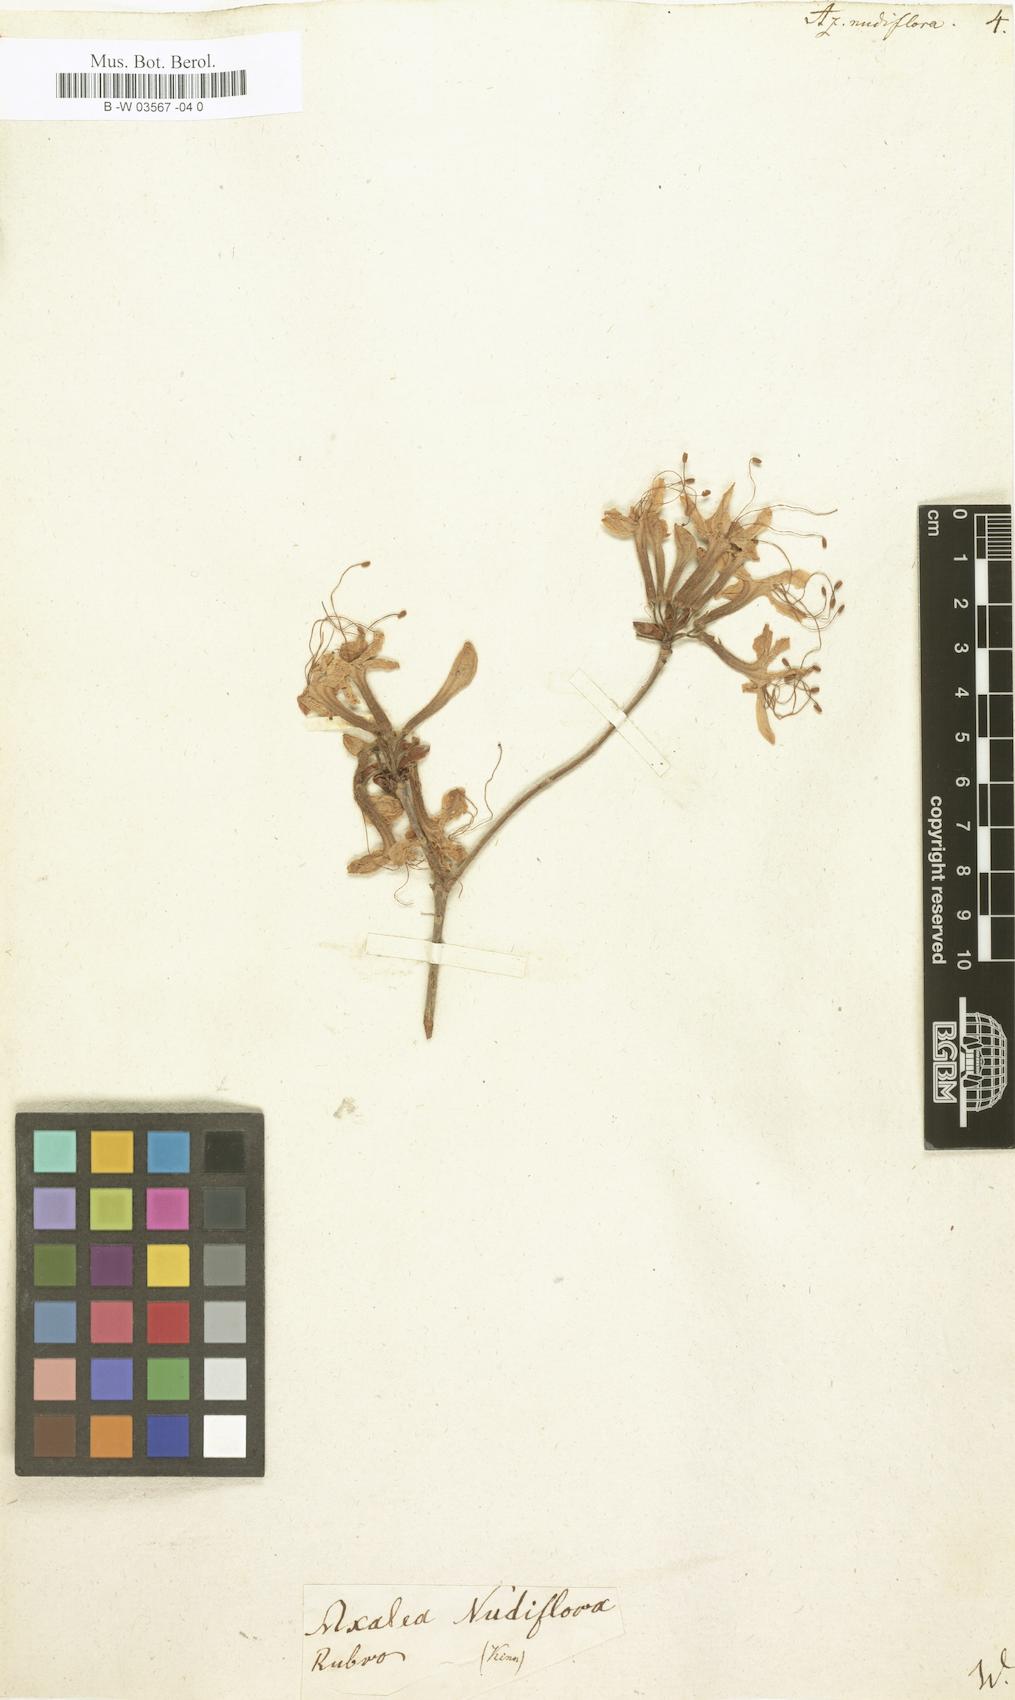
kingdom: Plantae
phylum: Tracheophyta
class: Magnoliopsida
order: Ericales
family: Ericaceae
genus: Rhododendron
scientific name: Rhododendron periclymenoides
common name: Election-pink
